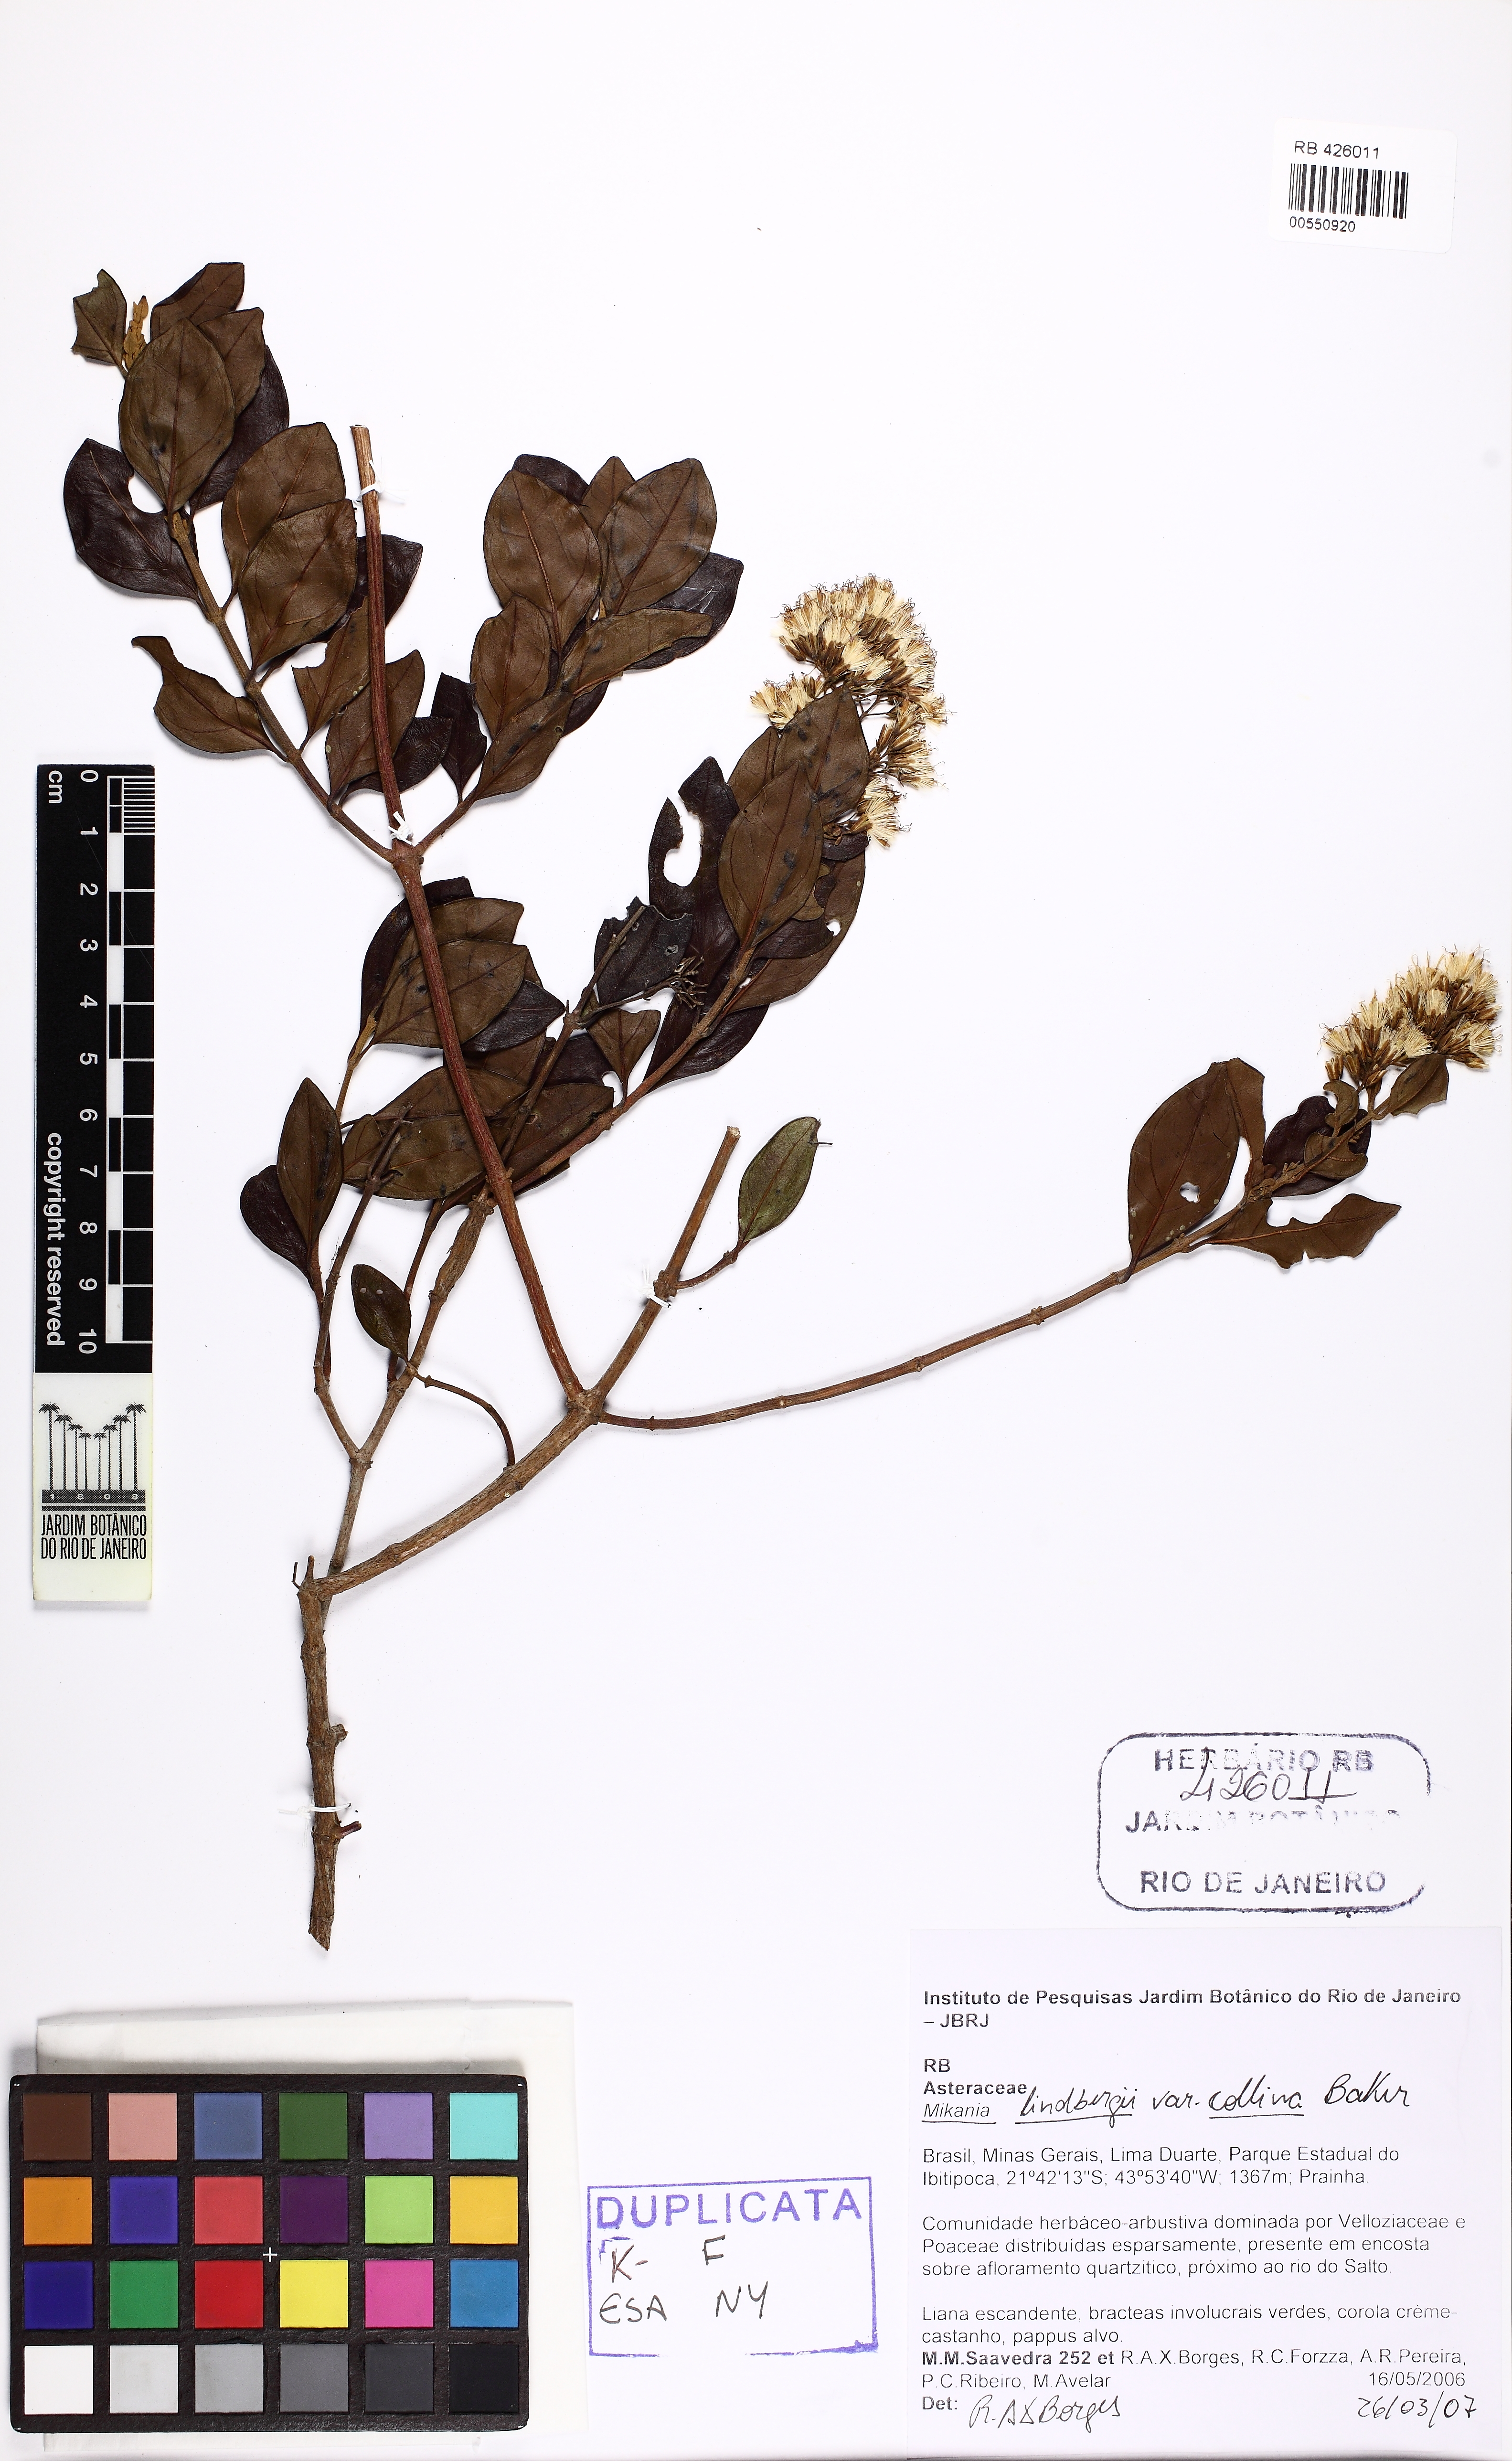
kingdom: Plantae
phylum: Tracheophyta
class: Magnoliopsida
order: Asterales
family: Asteraceae
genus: Mikania
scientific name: Mikania lindbergii
